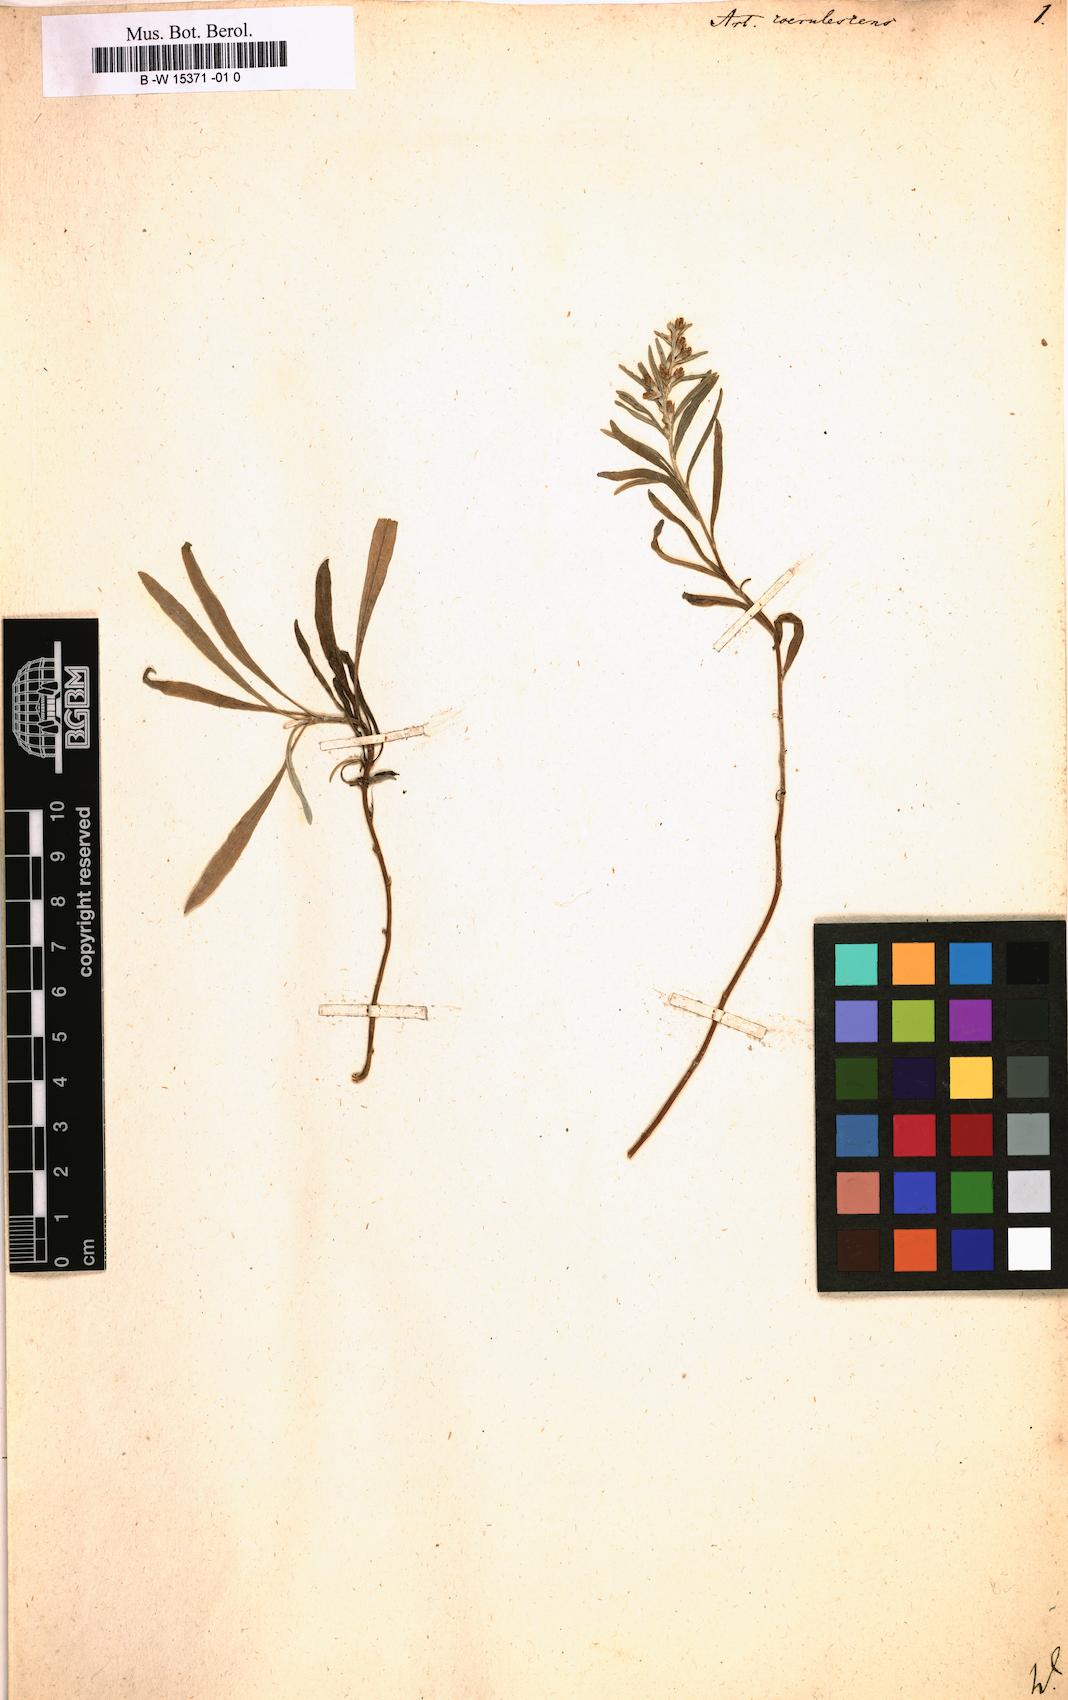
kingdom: Plantae
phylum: Tracheophyta
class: Magnoliopsida
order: Asterales
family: Asteraceae
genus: Artemisia
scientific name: Artemisia caerulescens
